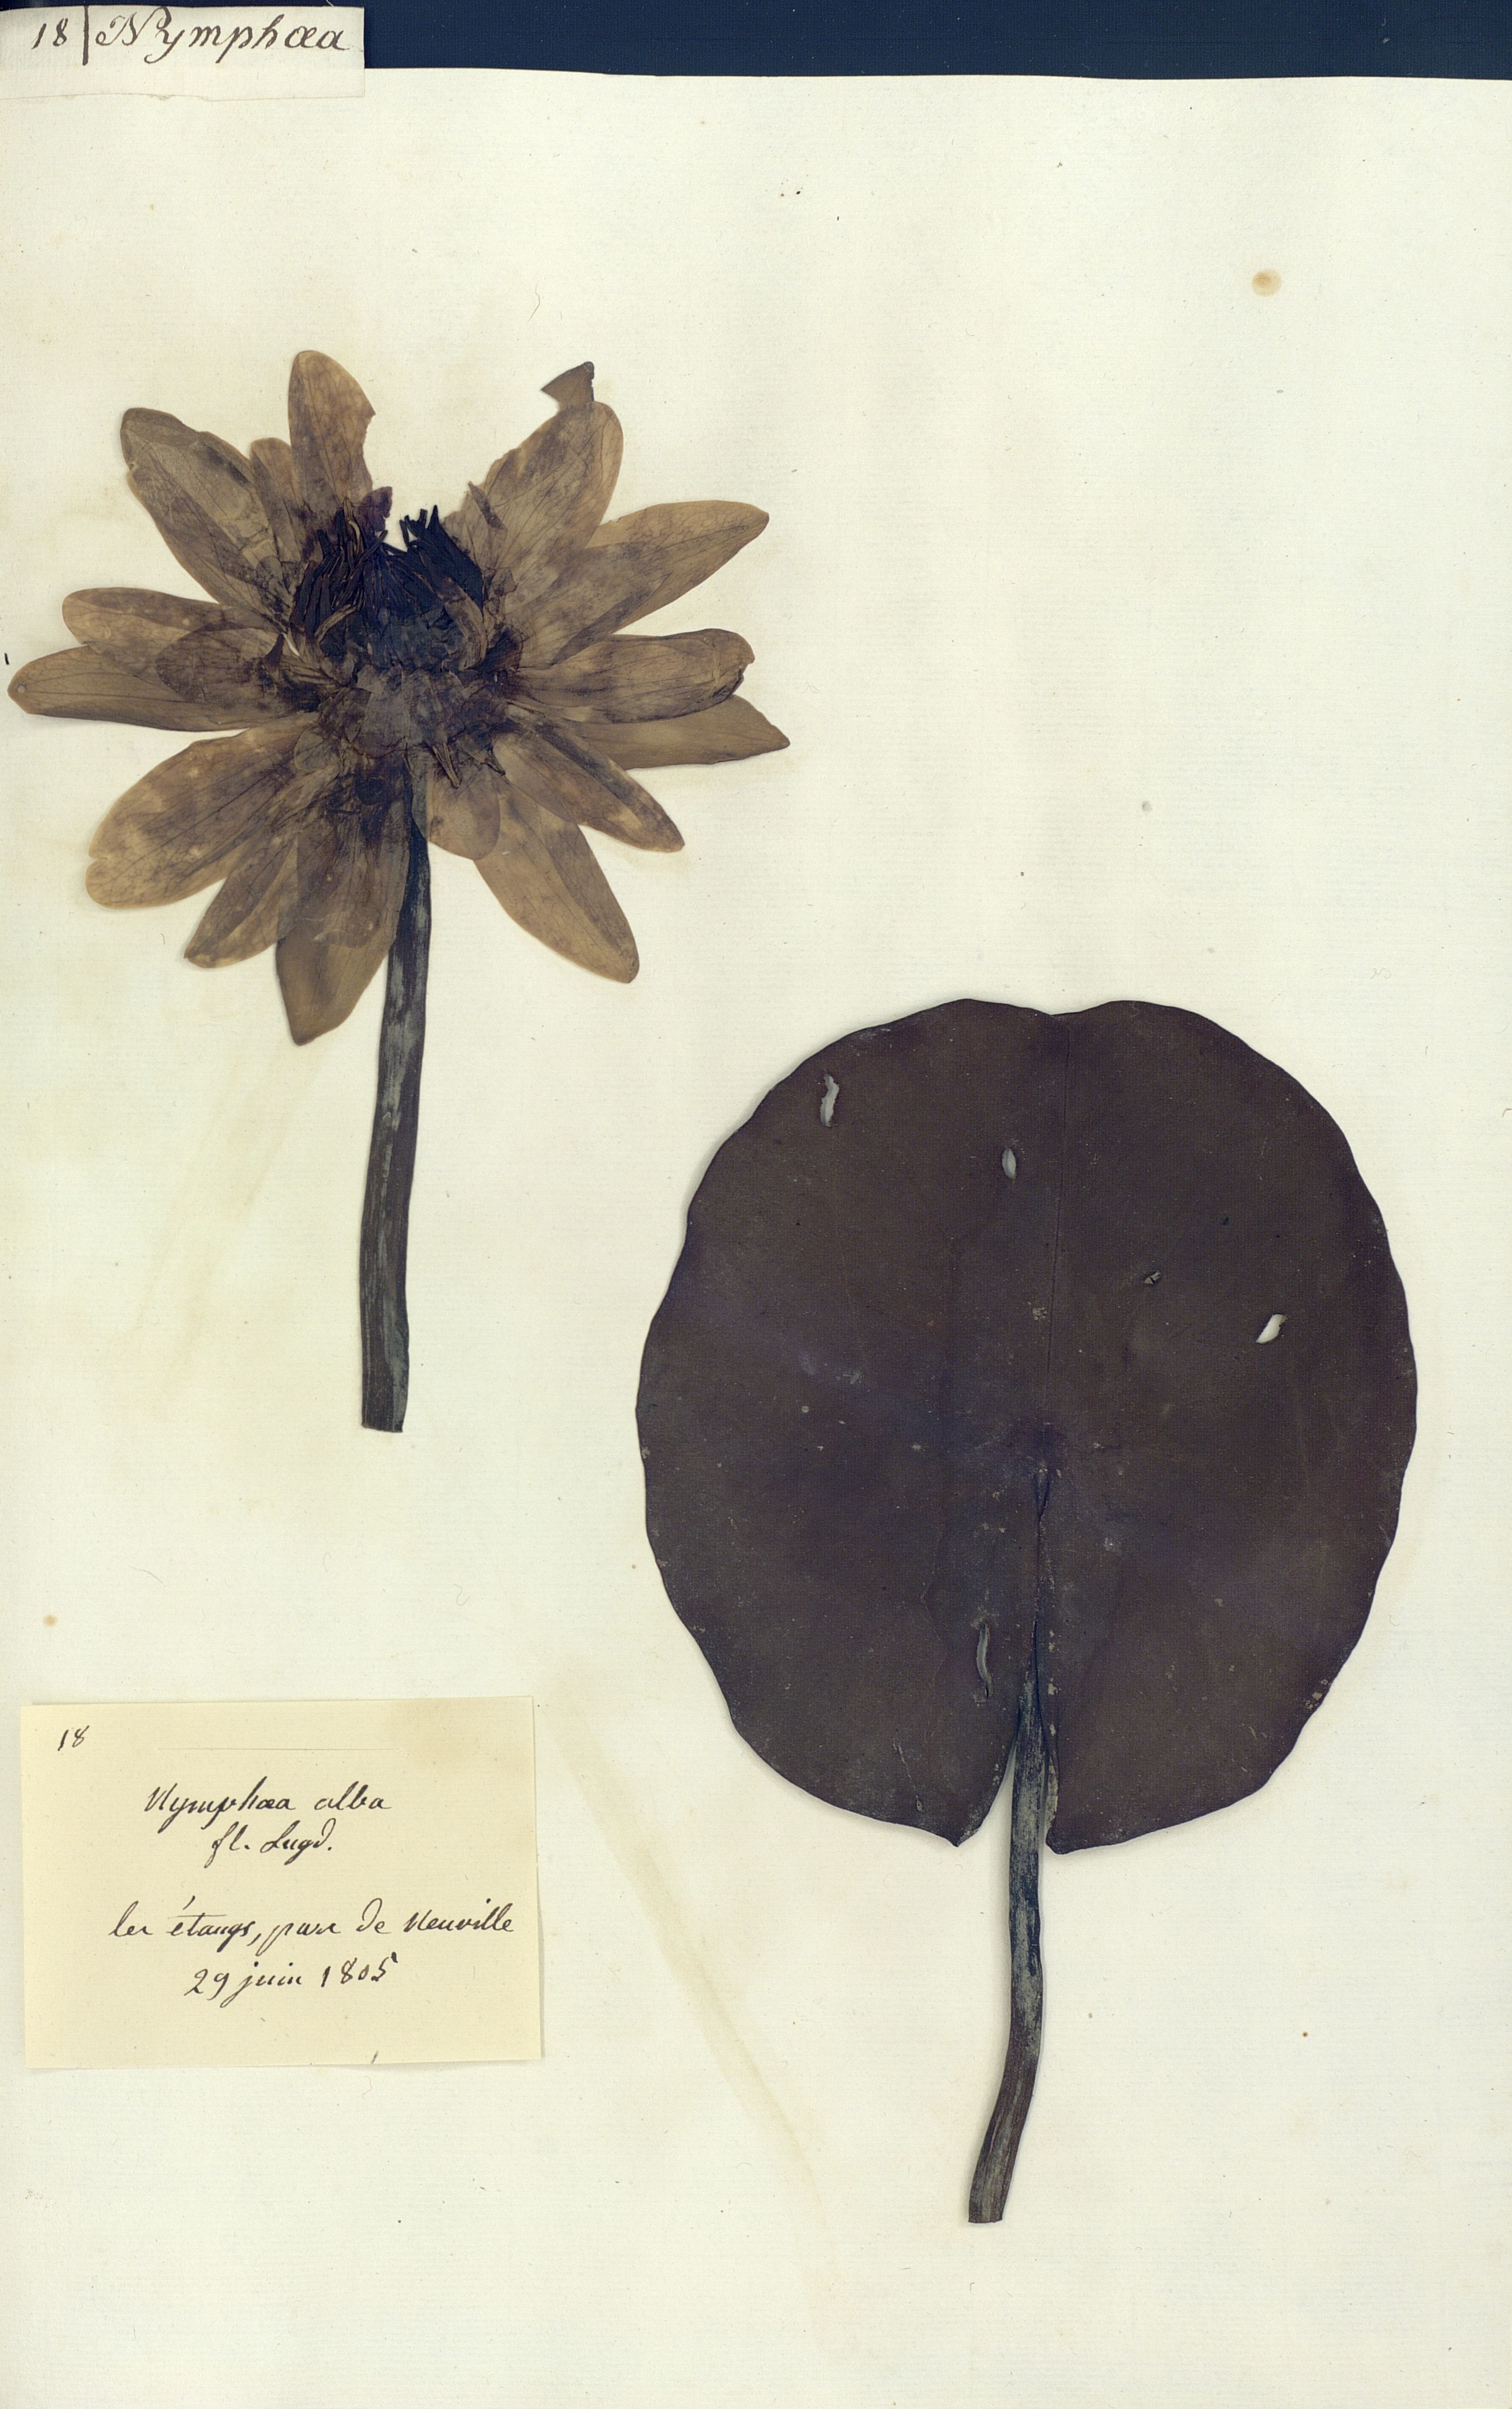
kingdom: Plantae
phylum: Tracheophyta
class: Magnoliopsida
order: Nymphaeales
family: Nymphaeaceae
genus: Nymphaea
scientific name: Nymphaea alba
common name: White water-lily
